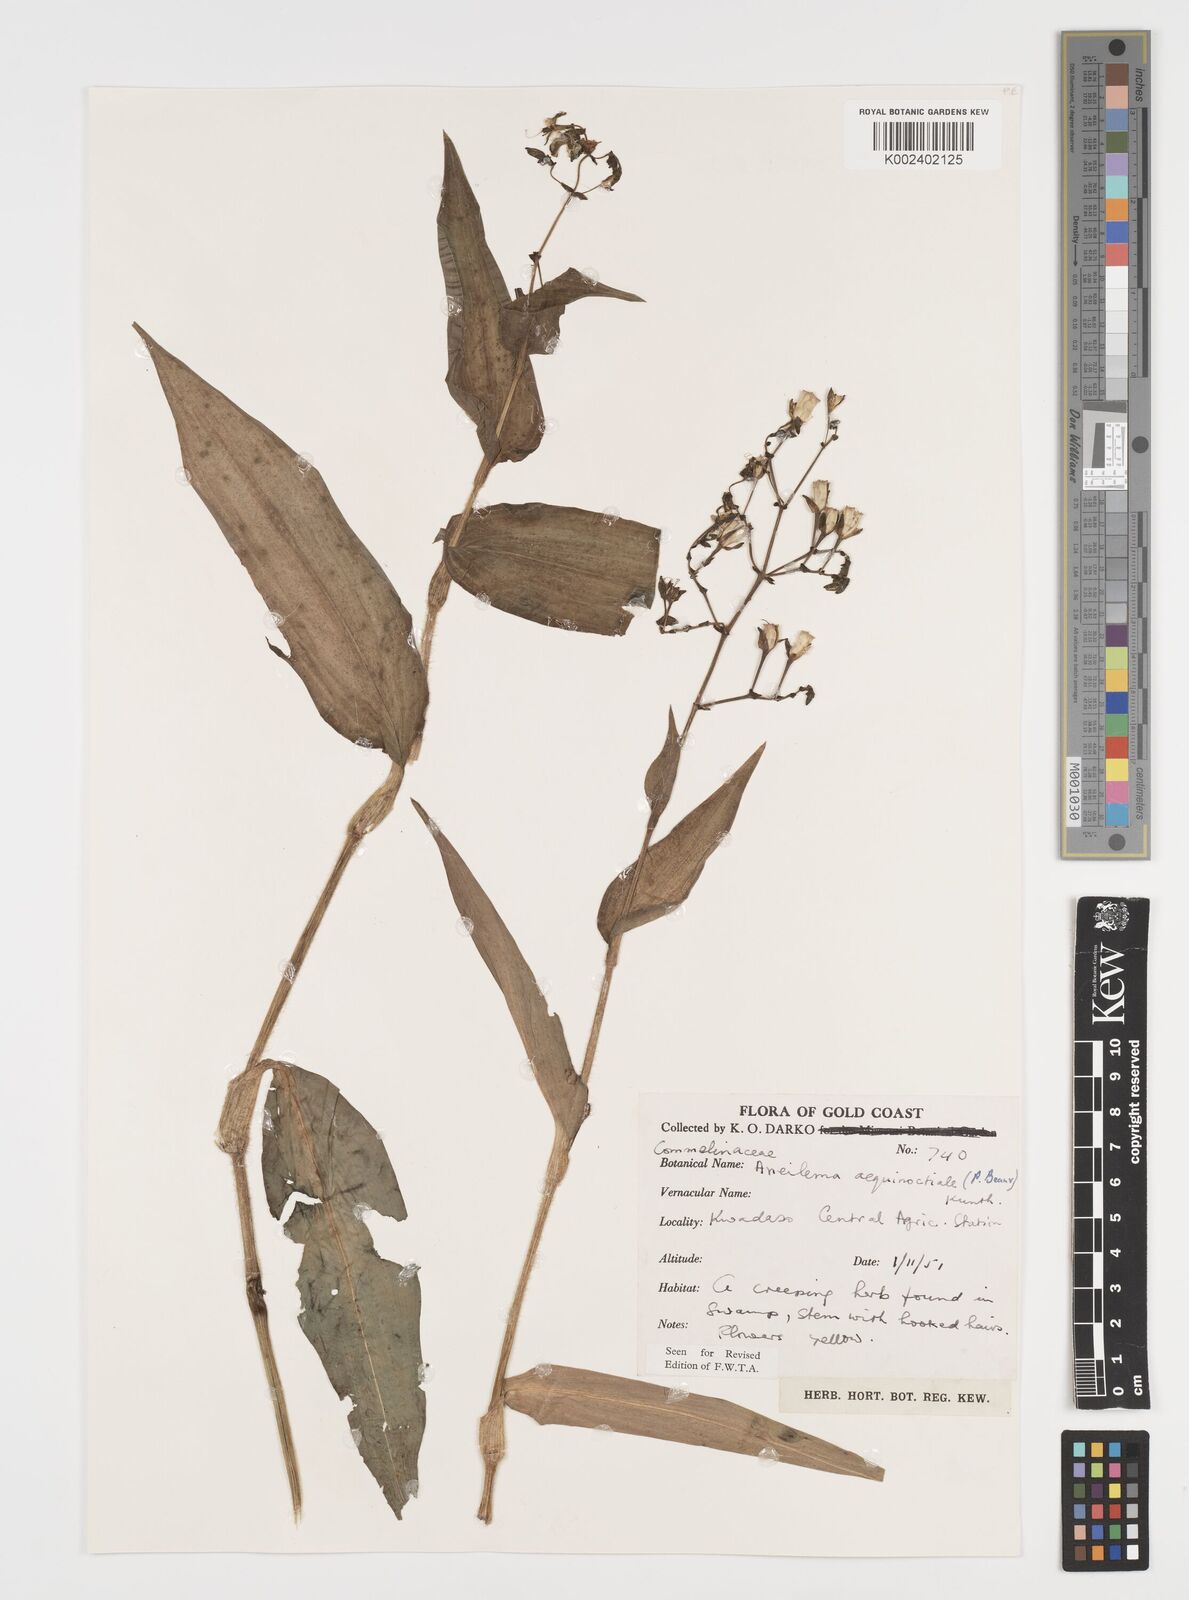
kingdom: Plantae
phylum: Tracheophyta
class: Liliopsida
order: Commelinales
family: Commelinaceae
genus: Aneilema
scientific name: Aneilema aequinoctiale
